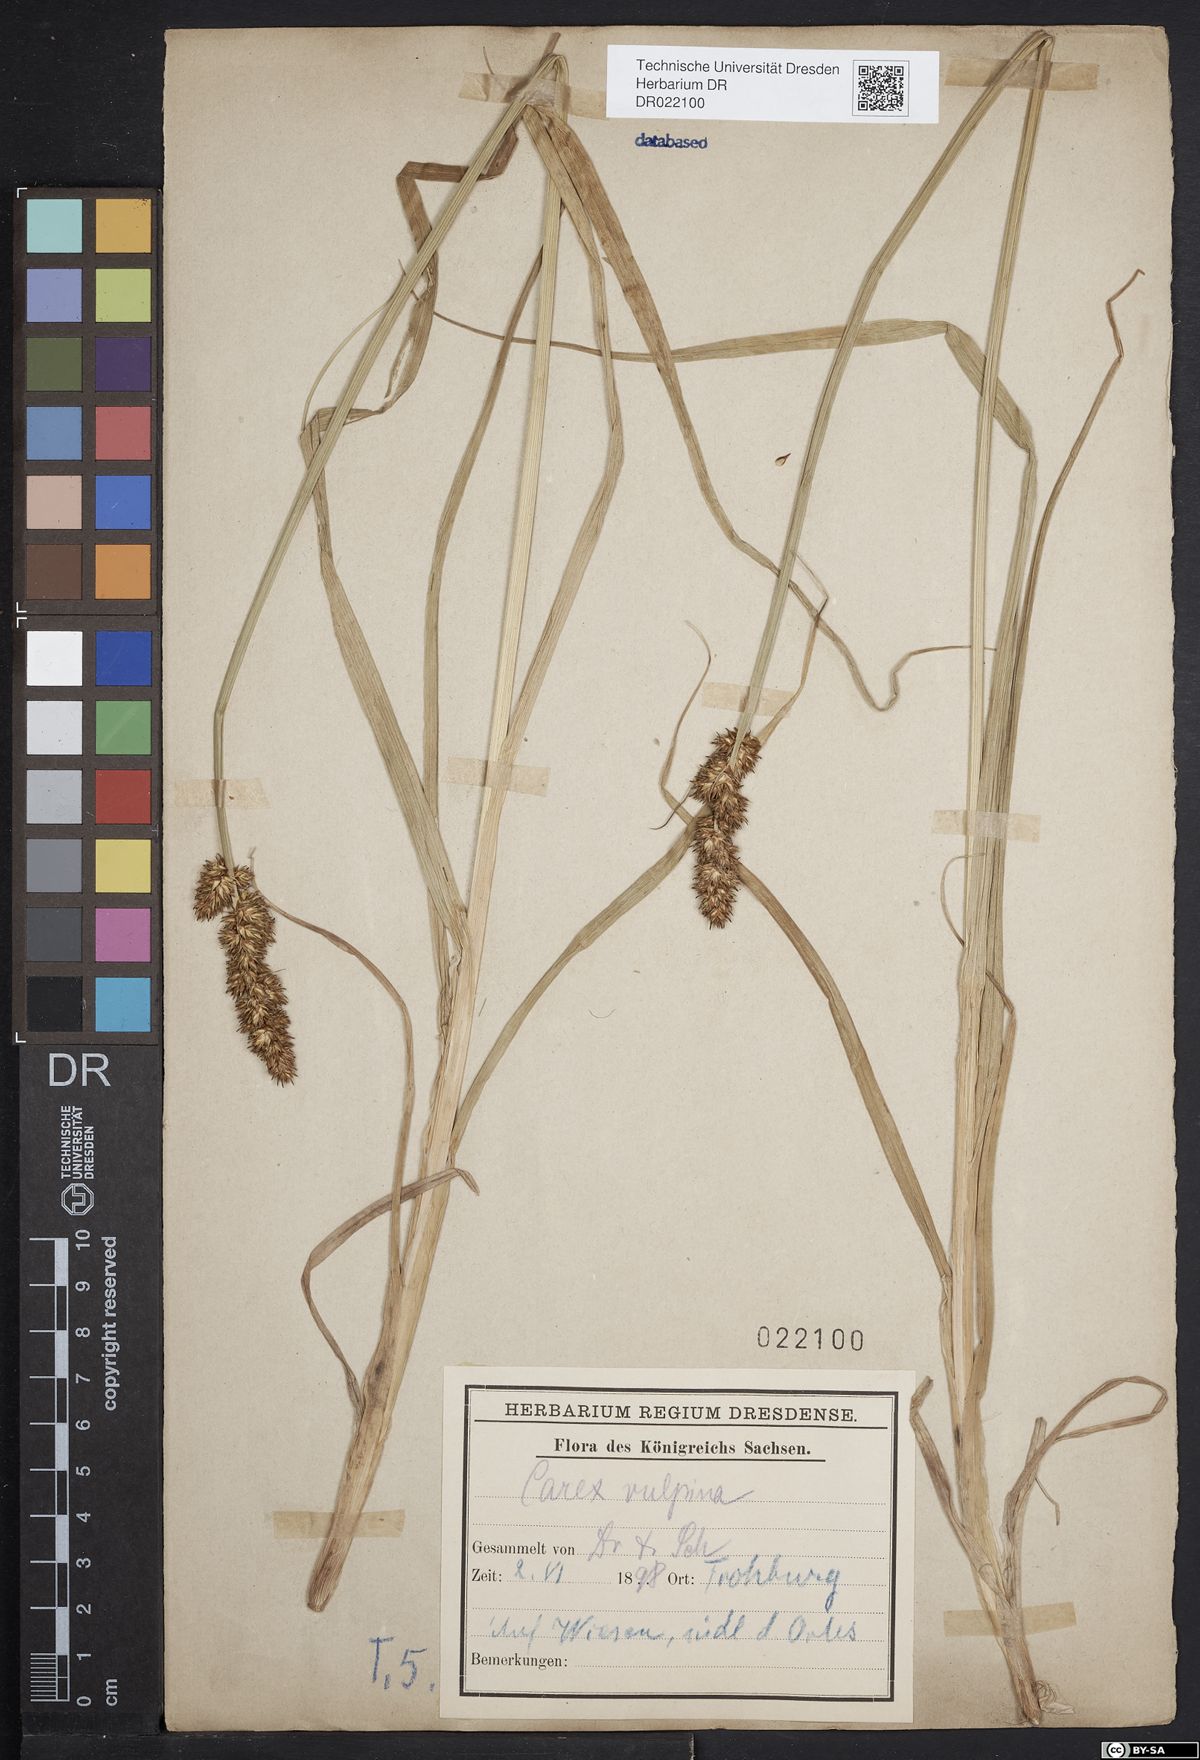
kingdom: Plantae
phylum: Tracheophyta
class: Liliopsida
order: Poales
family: Cyperaceae
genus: Carex
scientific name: Carex vulpina
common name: True fox-sedge
